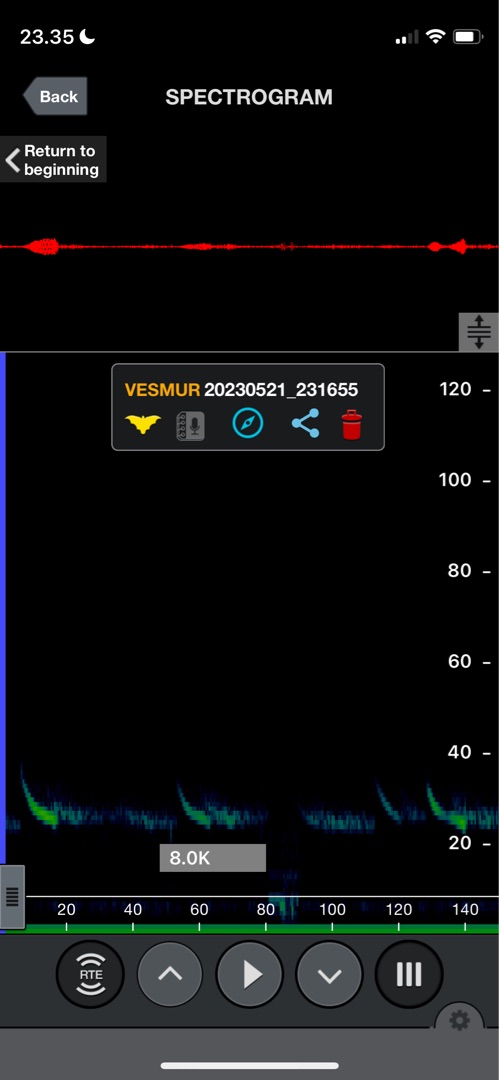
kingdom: Animalia
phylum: Chordata
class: Mammalia
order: Chiroptera
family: Vespertilionidae
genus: Vespertilio
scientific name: Vespertilio murinus
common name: Skimmelflagermus
